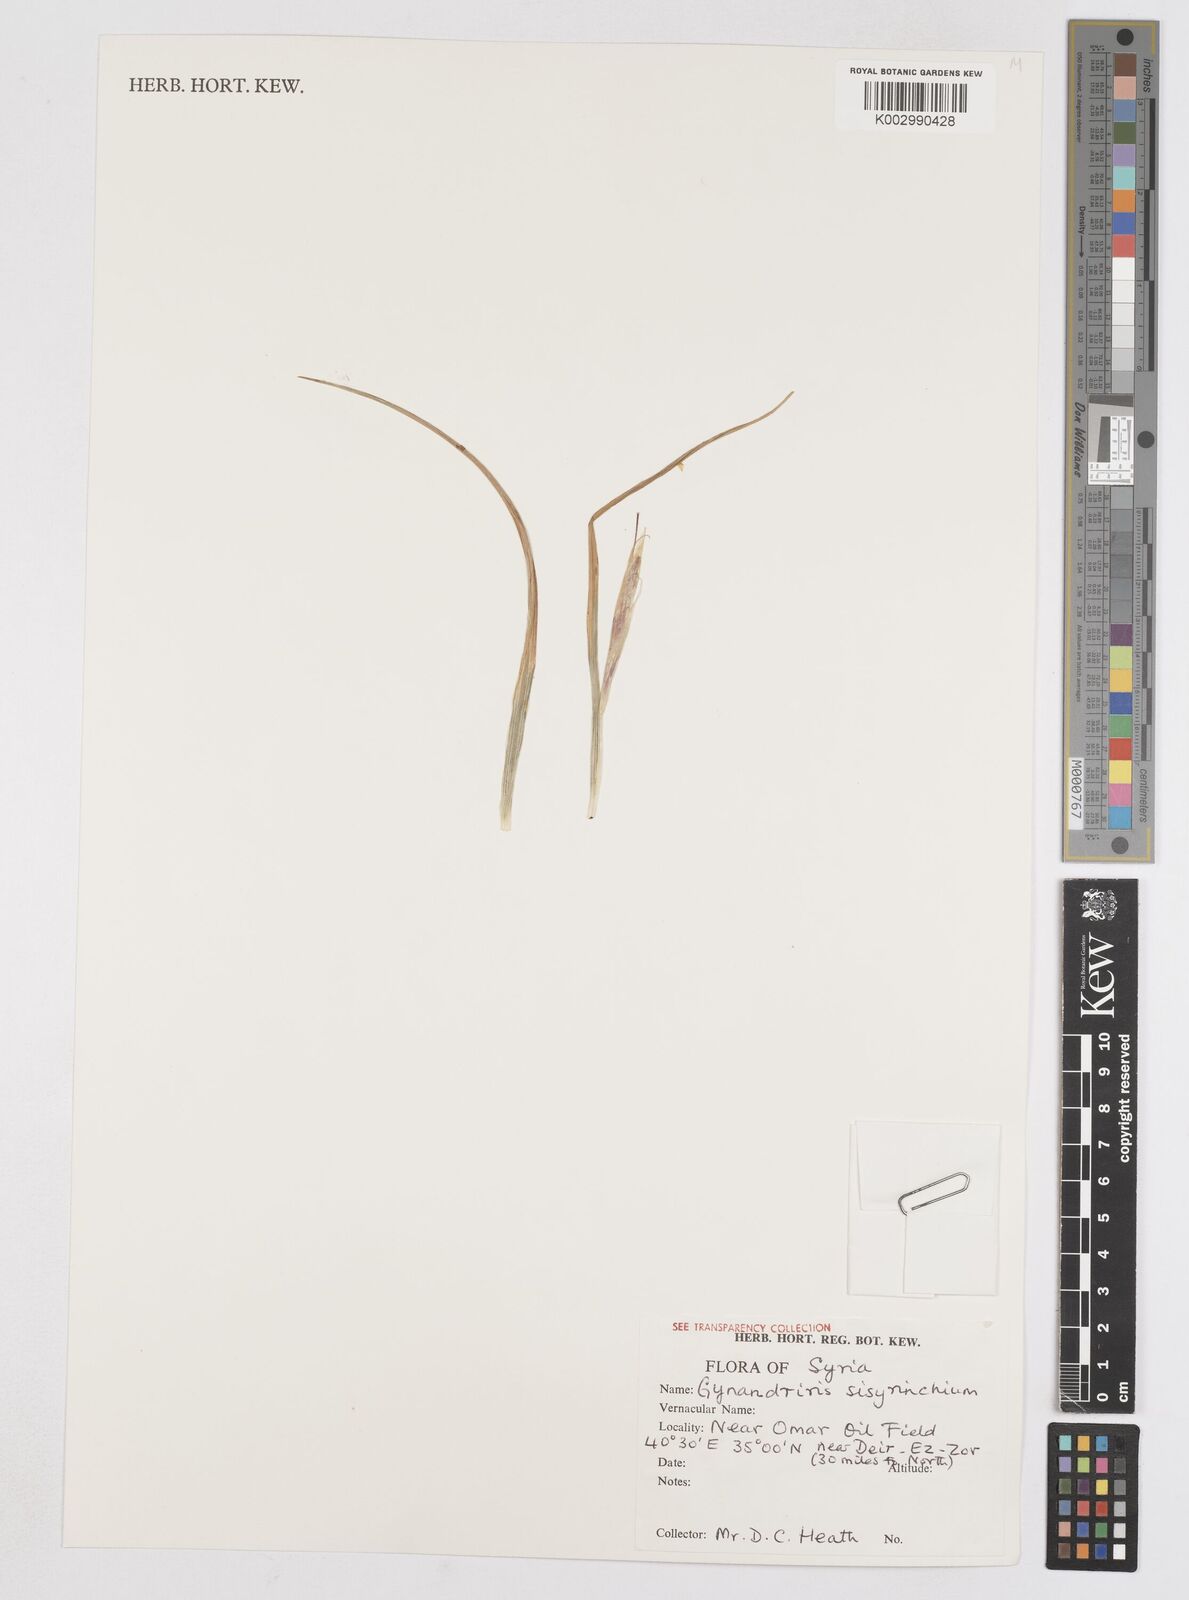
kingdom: Plantae
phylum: Tracheophyta
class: Liliopsida
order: Asparagales
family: Iridaceae
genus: Moraea
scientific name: Moraea sisyrinchium
